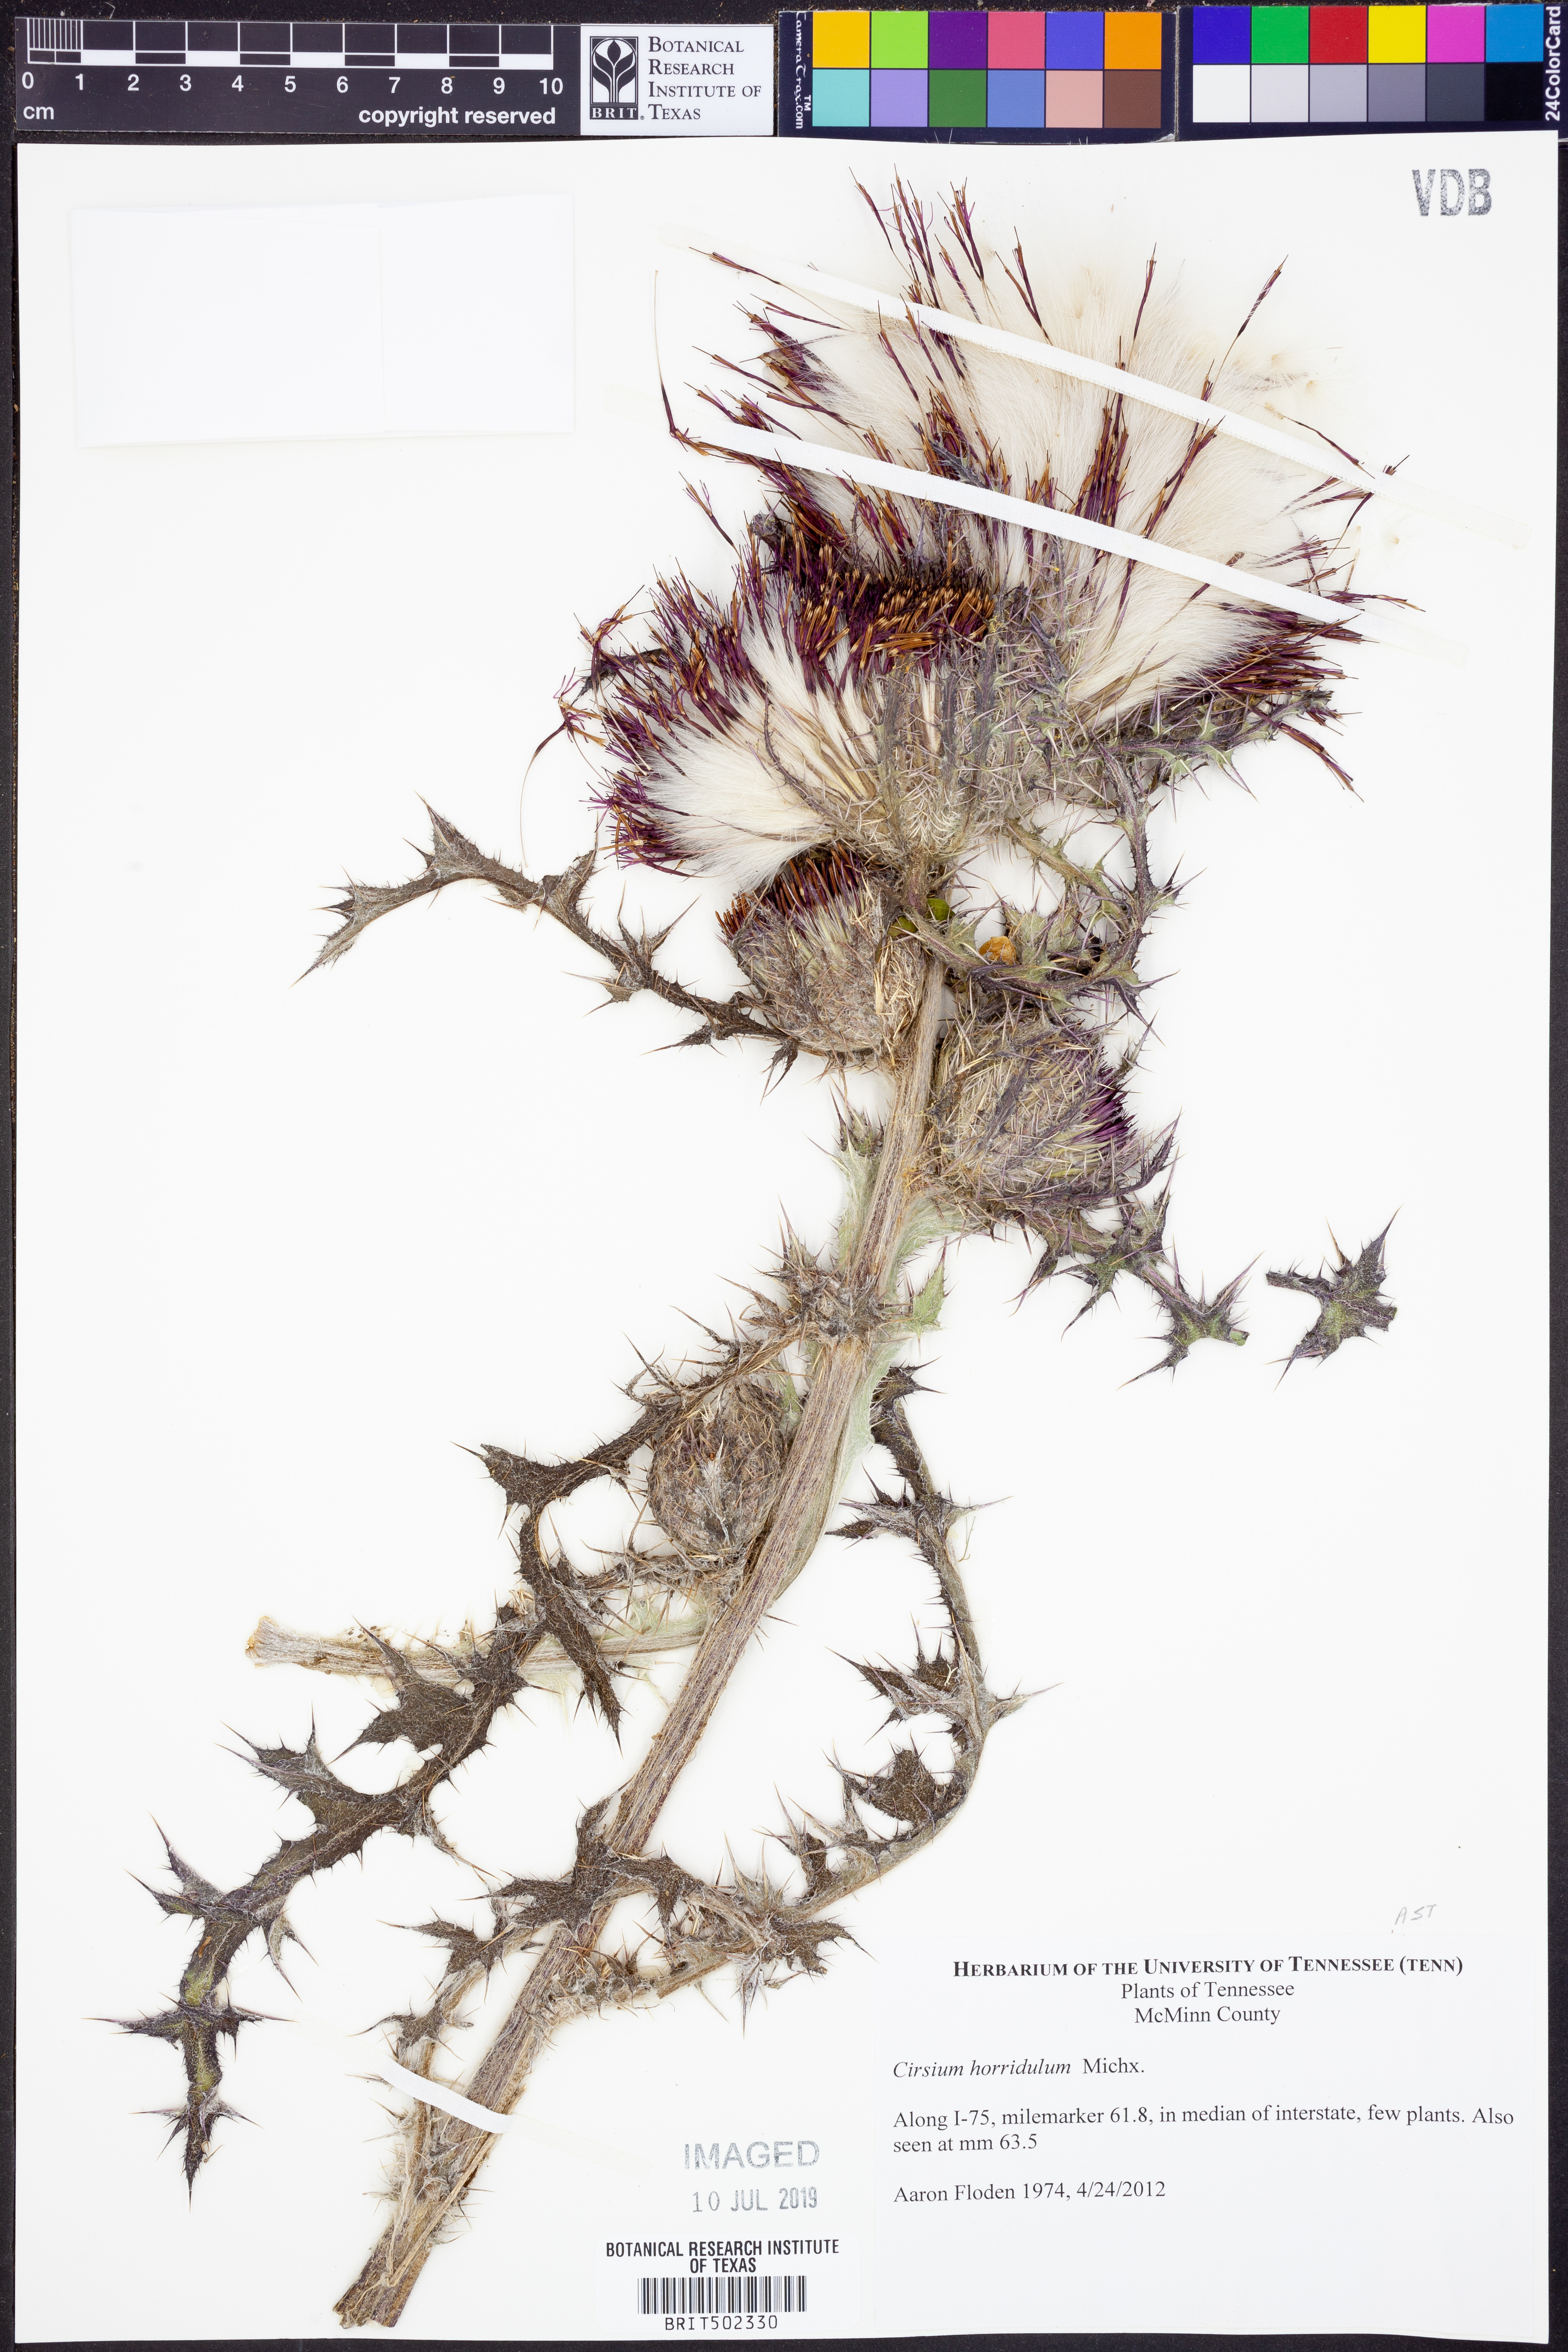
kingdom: Plantae
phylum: Tracheophyta
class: Magnoliopsida
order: Asterales
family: Asteraceae
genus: Cirsium
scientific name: Cirsium horridulum
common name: Bristly thistle
